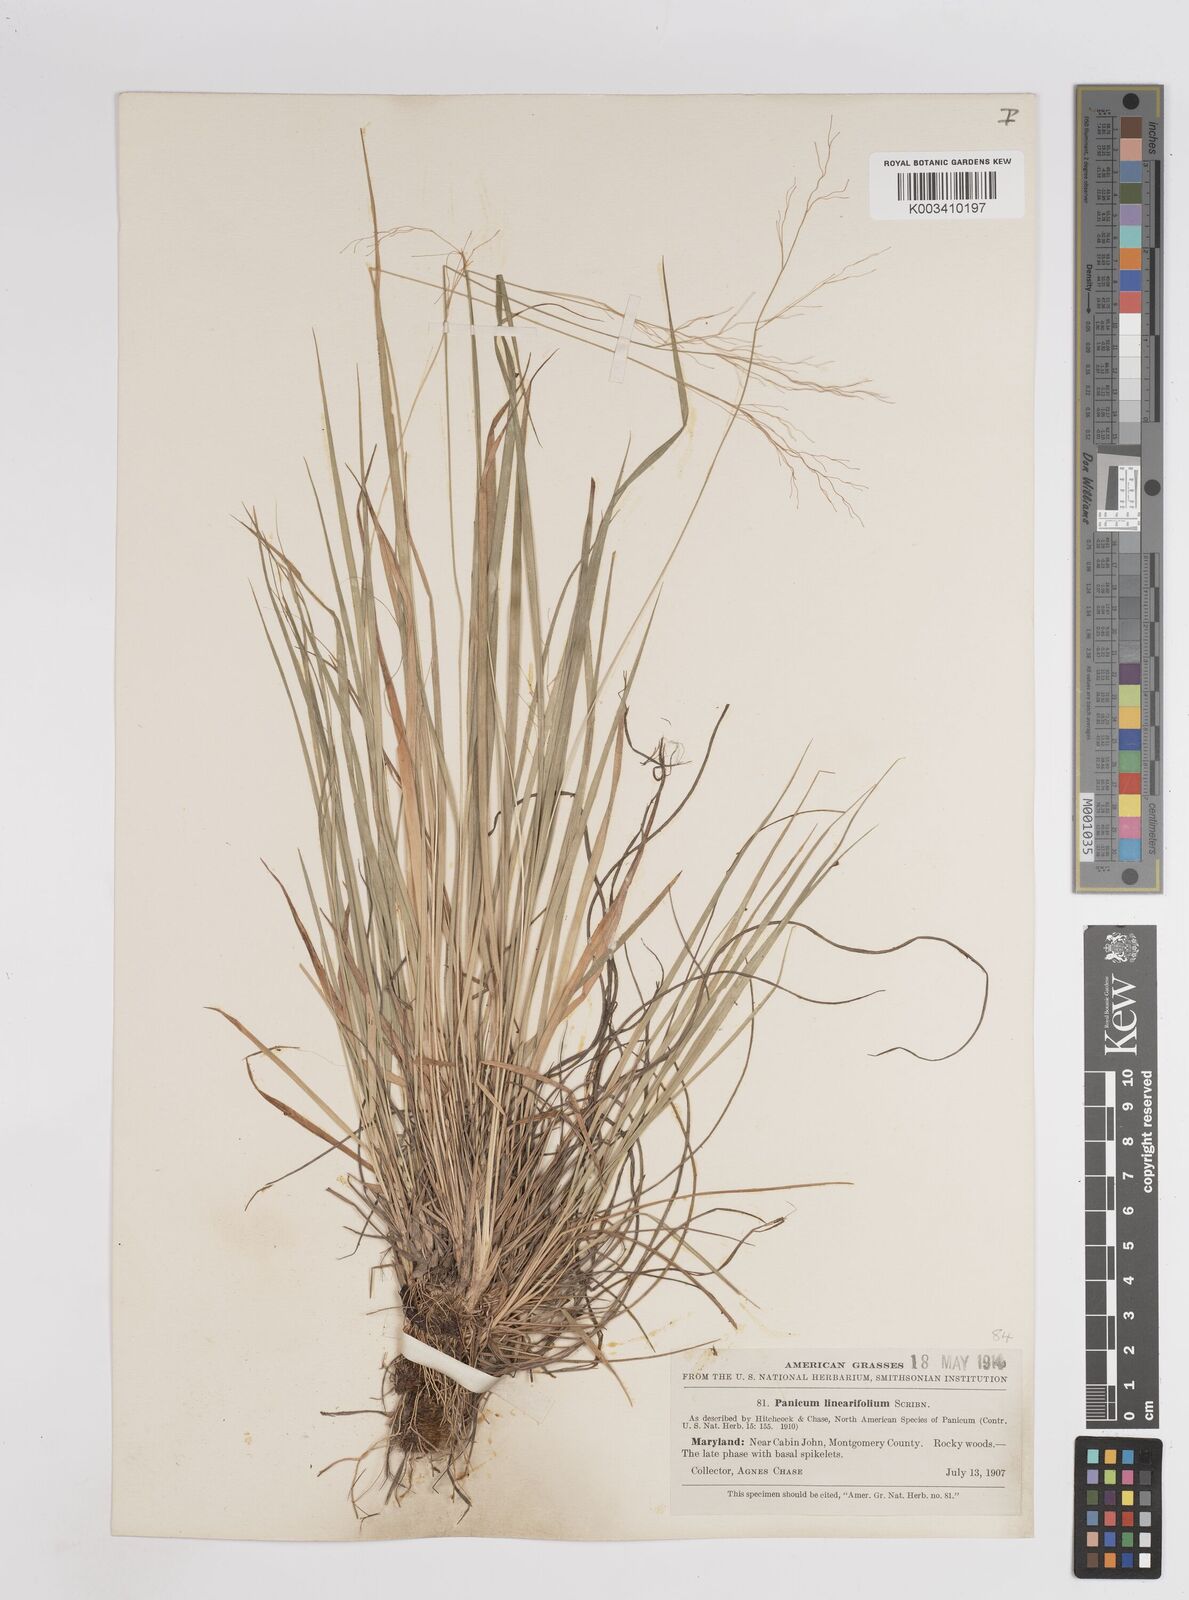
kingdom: Plantae
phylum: Tracheophyta
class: Liliopsida
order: Poales
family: Poaceae
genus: Dichanthelium
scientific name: Dichanthelium linearifolium
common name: Linear-leaved panicgrass
